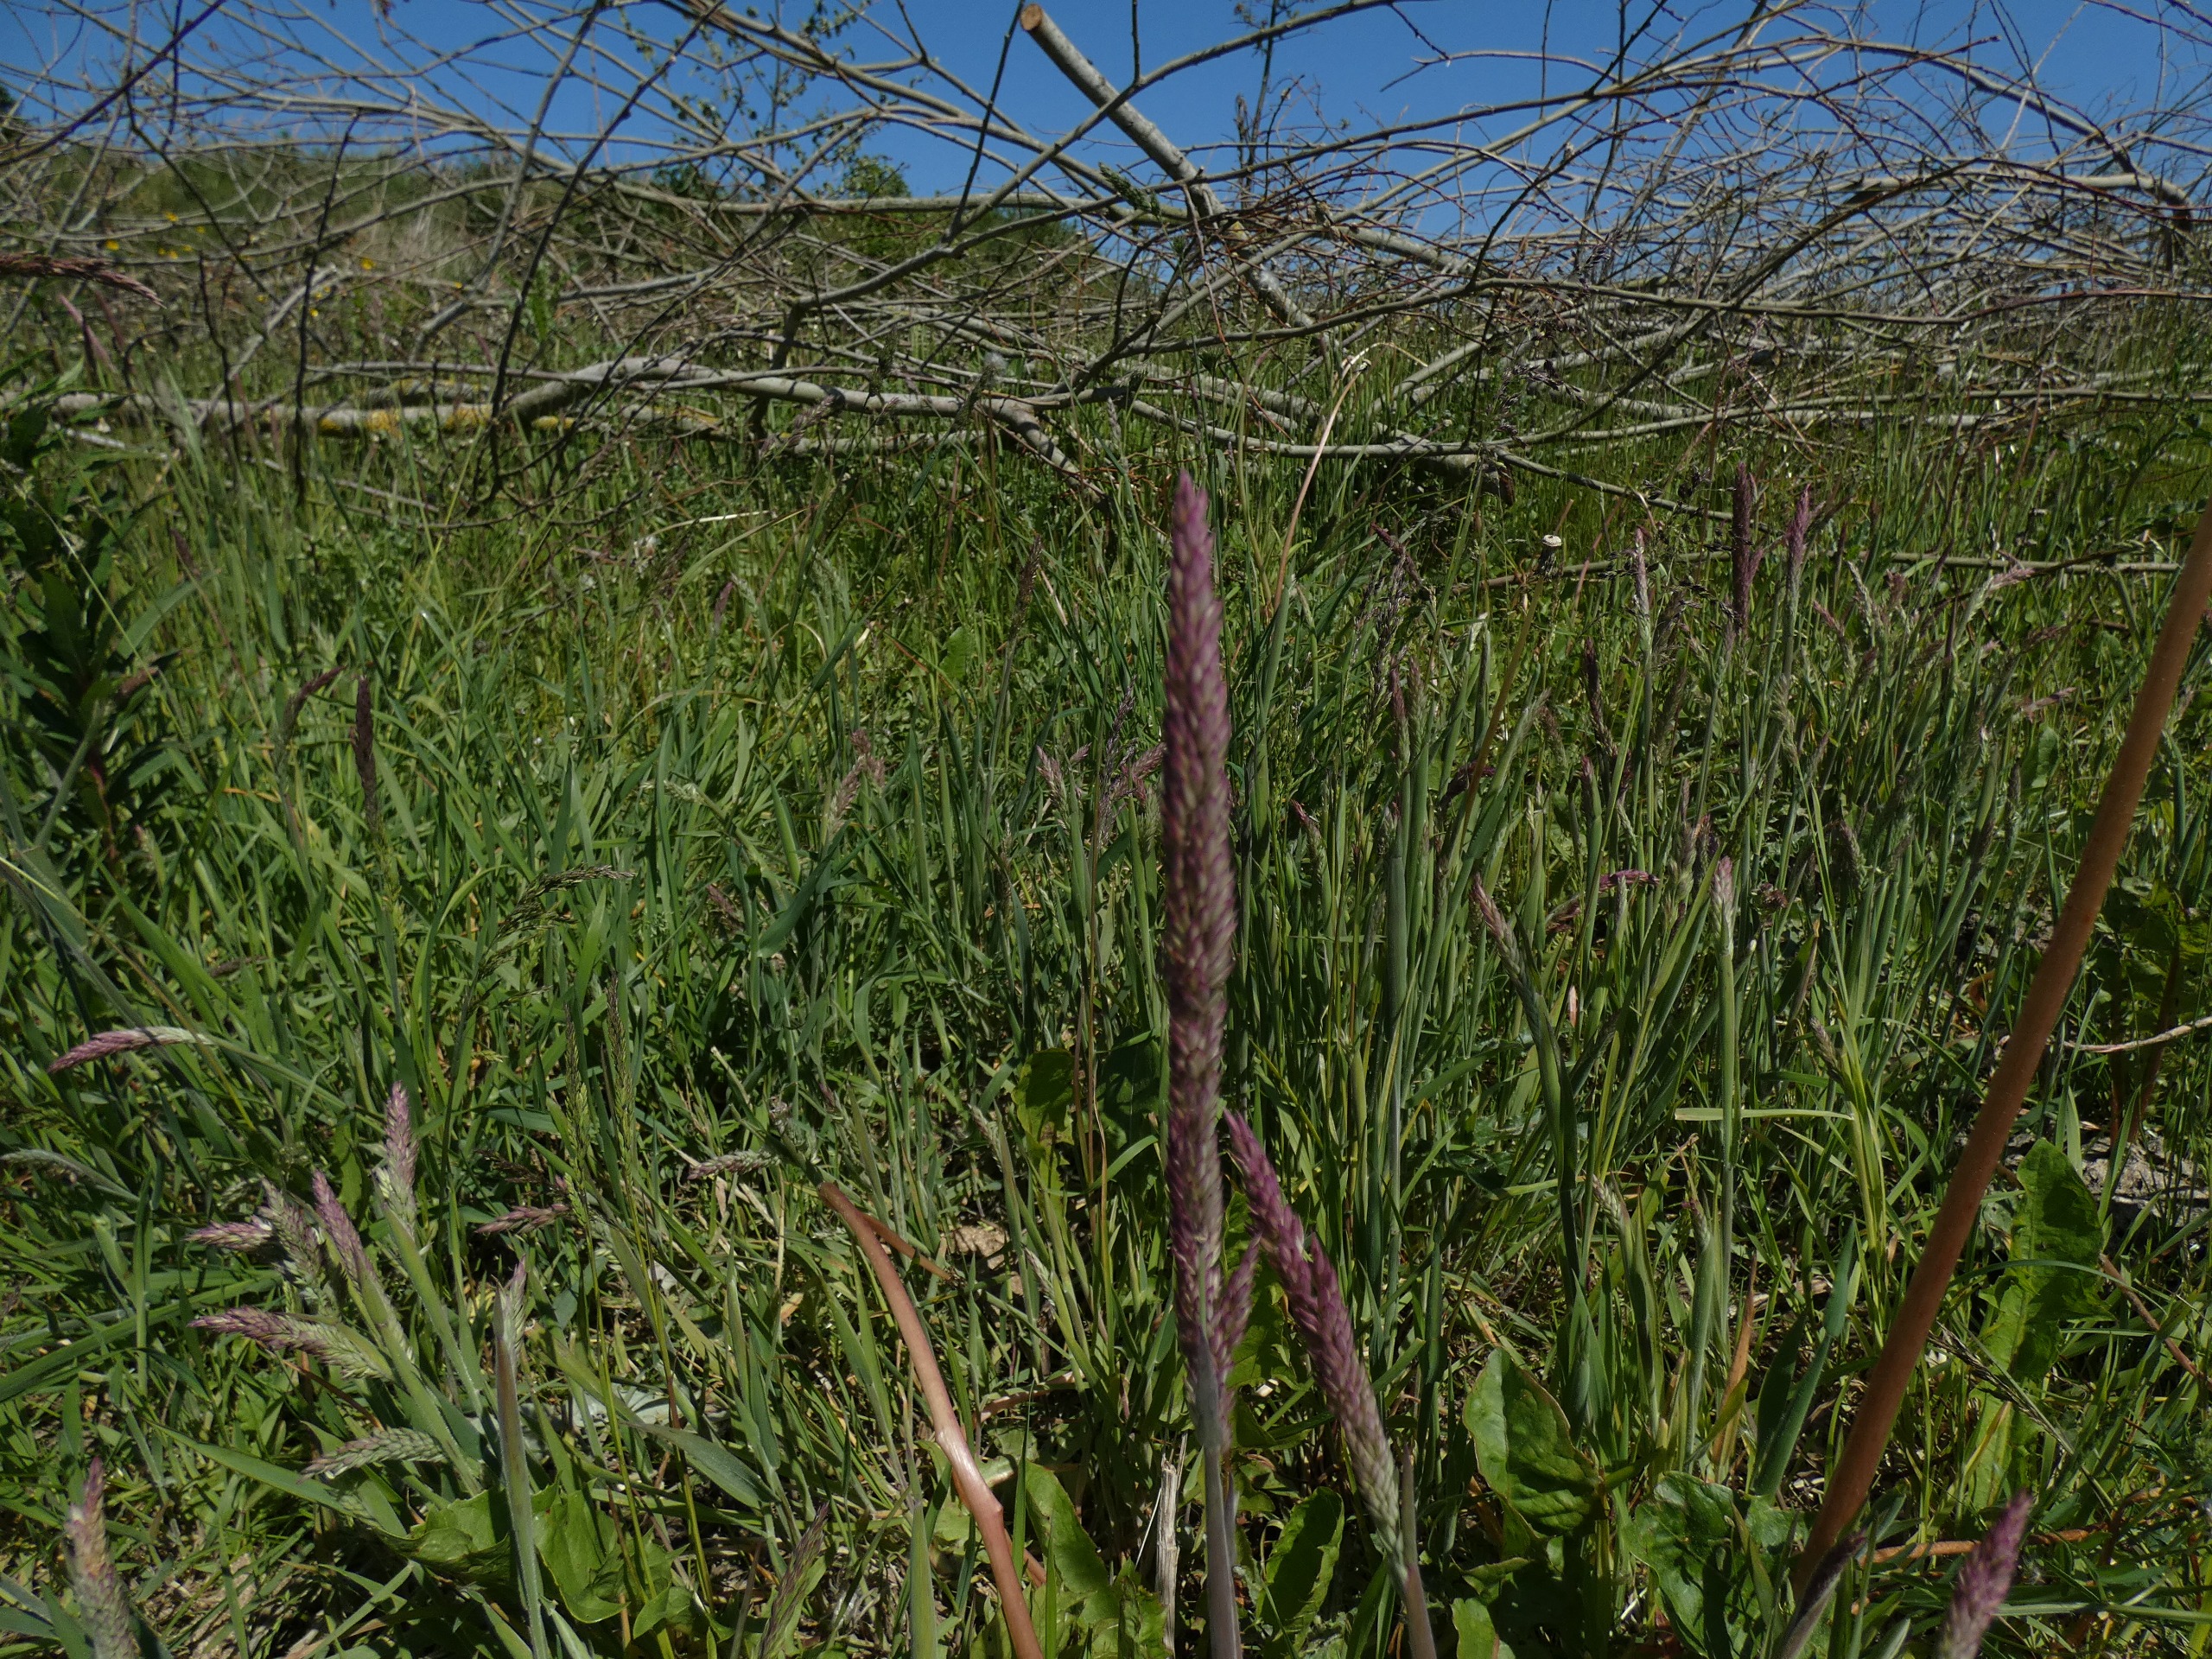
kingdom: Plantae
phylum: Tracheophyta
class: Liliopsida
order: Poales
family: Poaceae
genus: Holcus
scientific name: Holcus lanatus
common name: Fløjlsgræs
